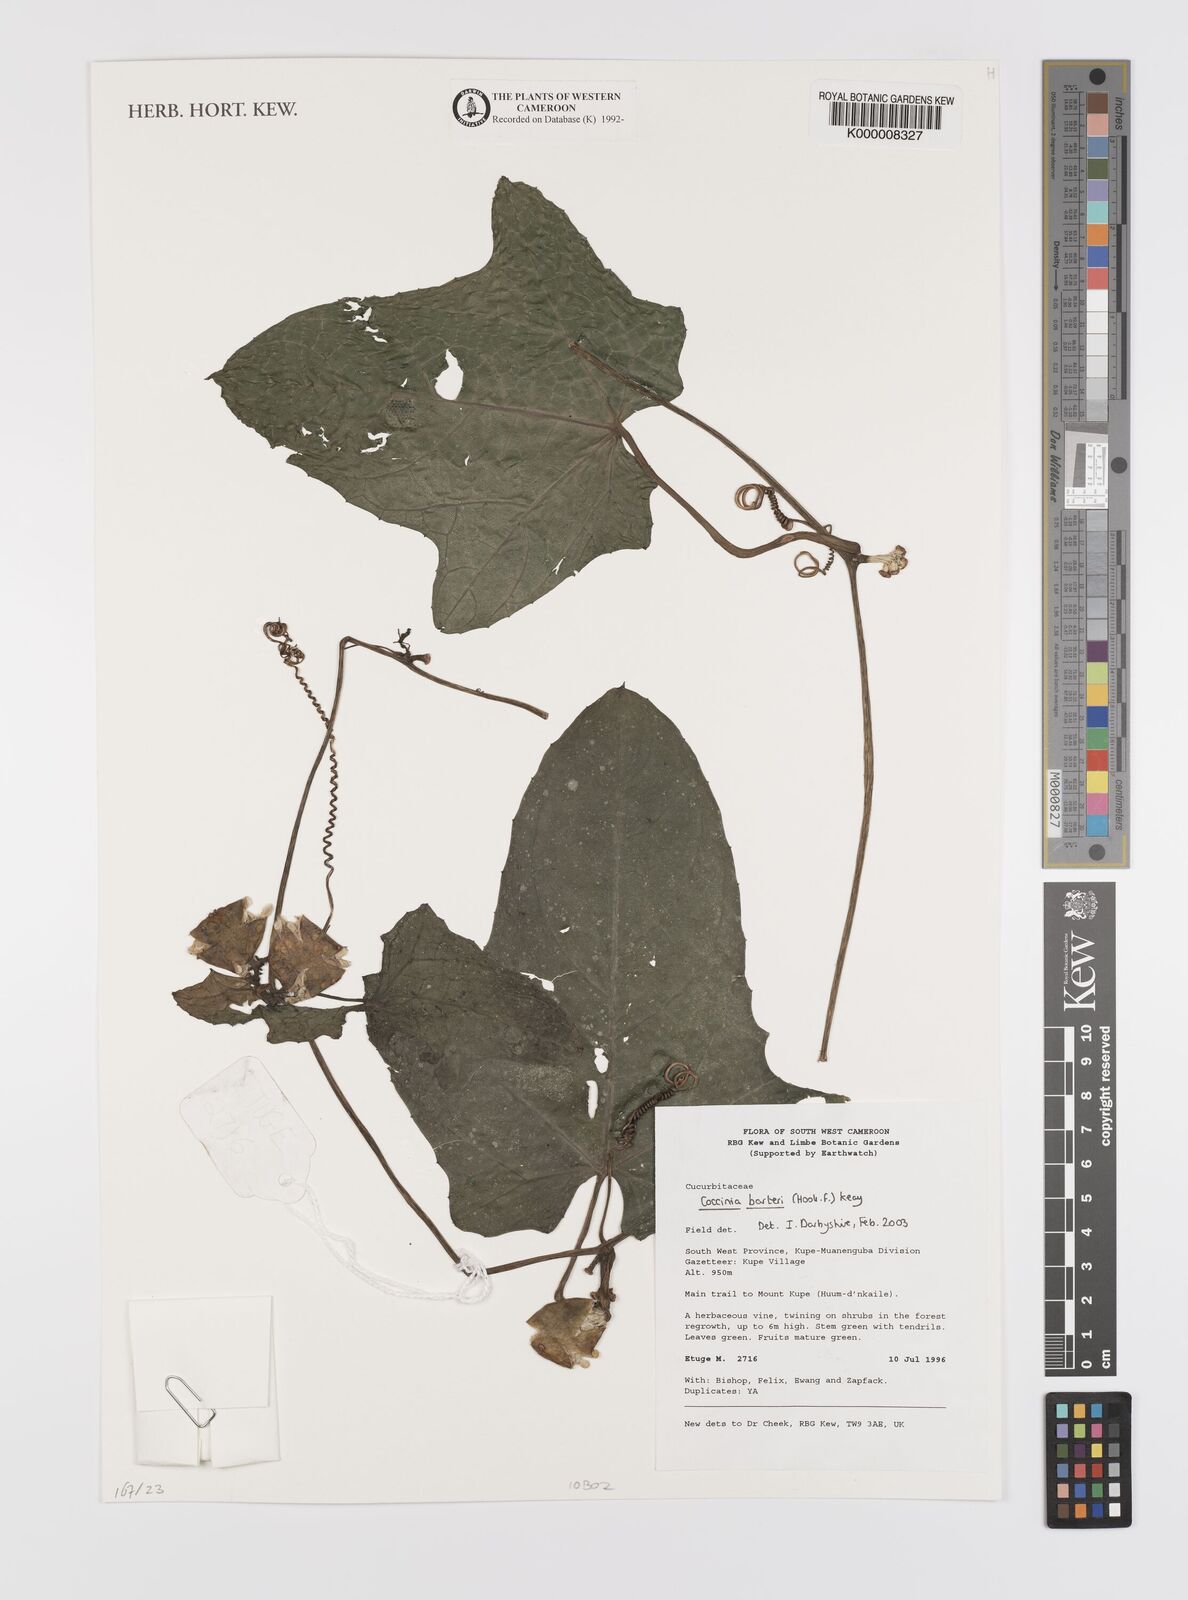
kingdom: Plantae
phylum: Tracheophyta
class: Magnoliopsida
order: Cucurbitales
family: Cucurbitaceae
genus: Coccinia
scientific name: Coccinia barteri
